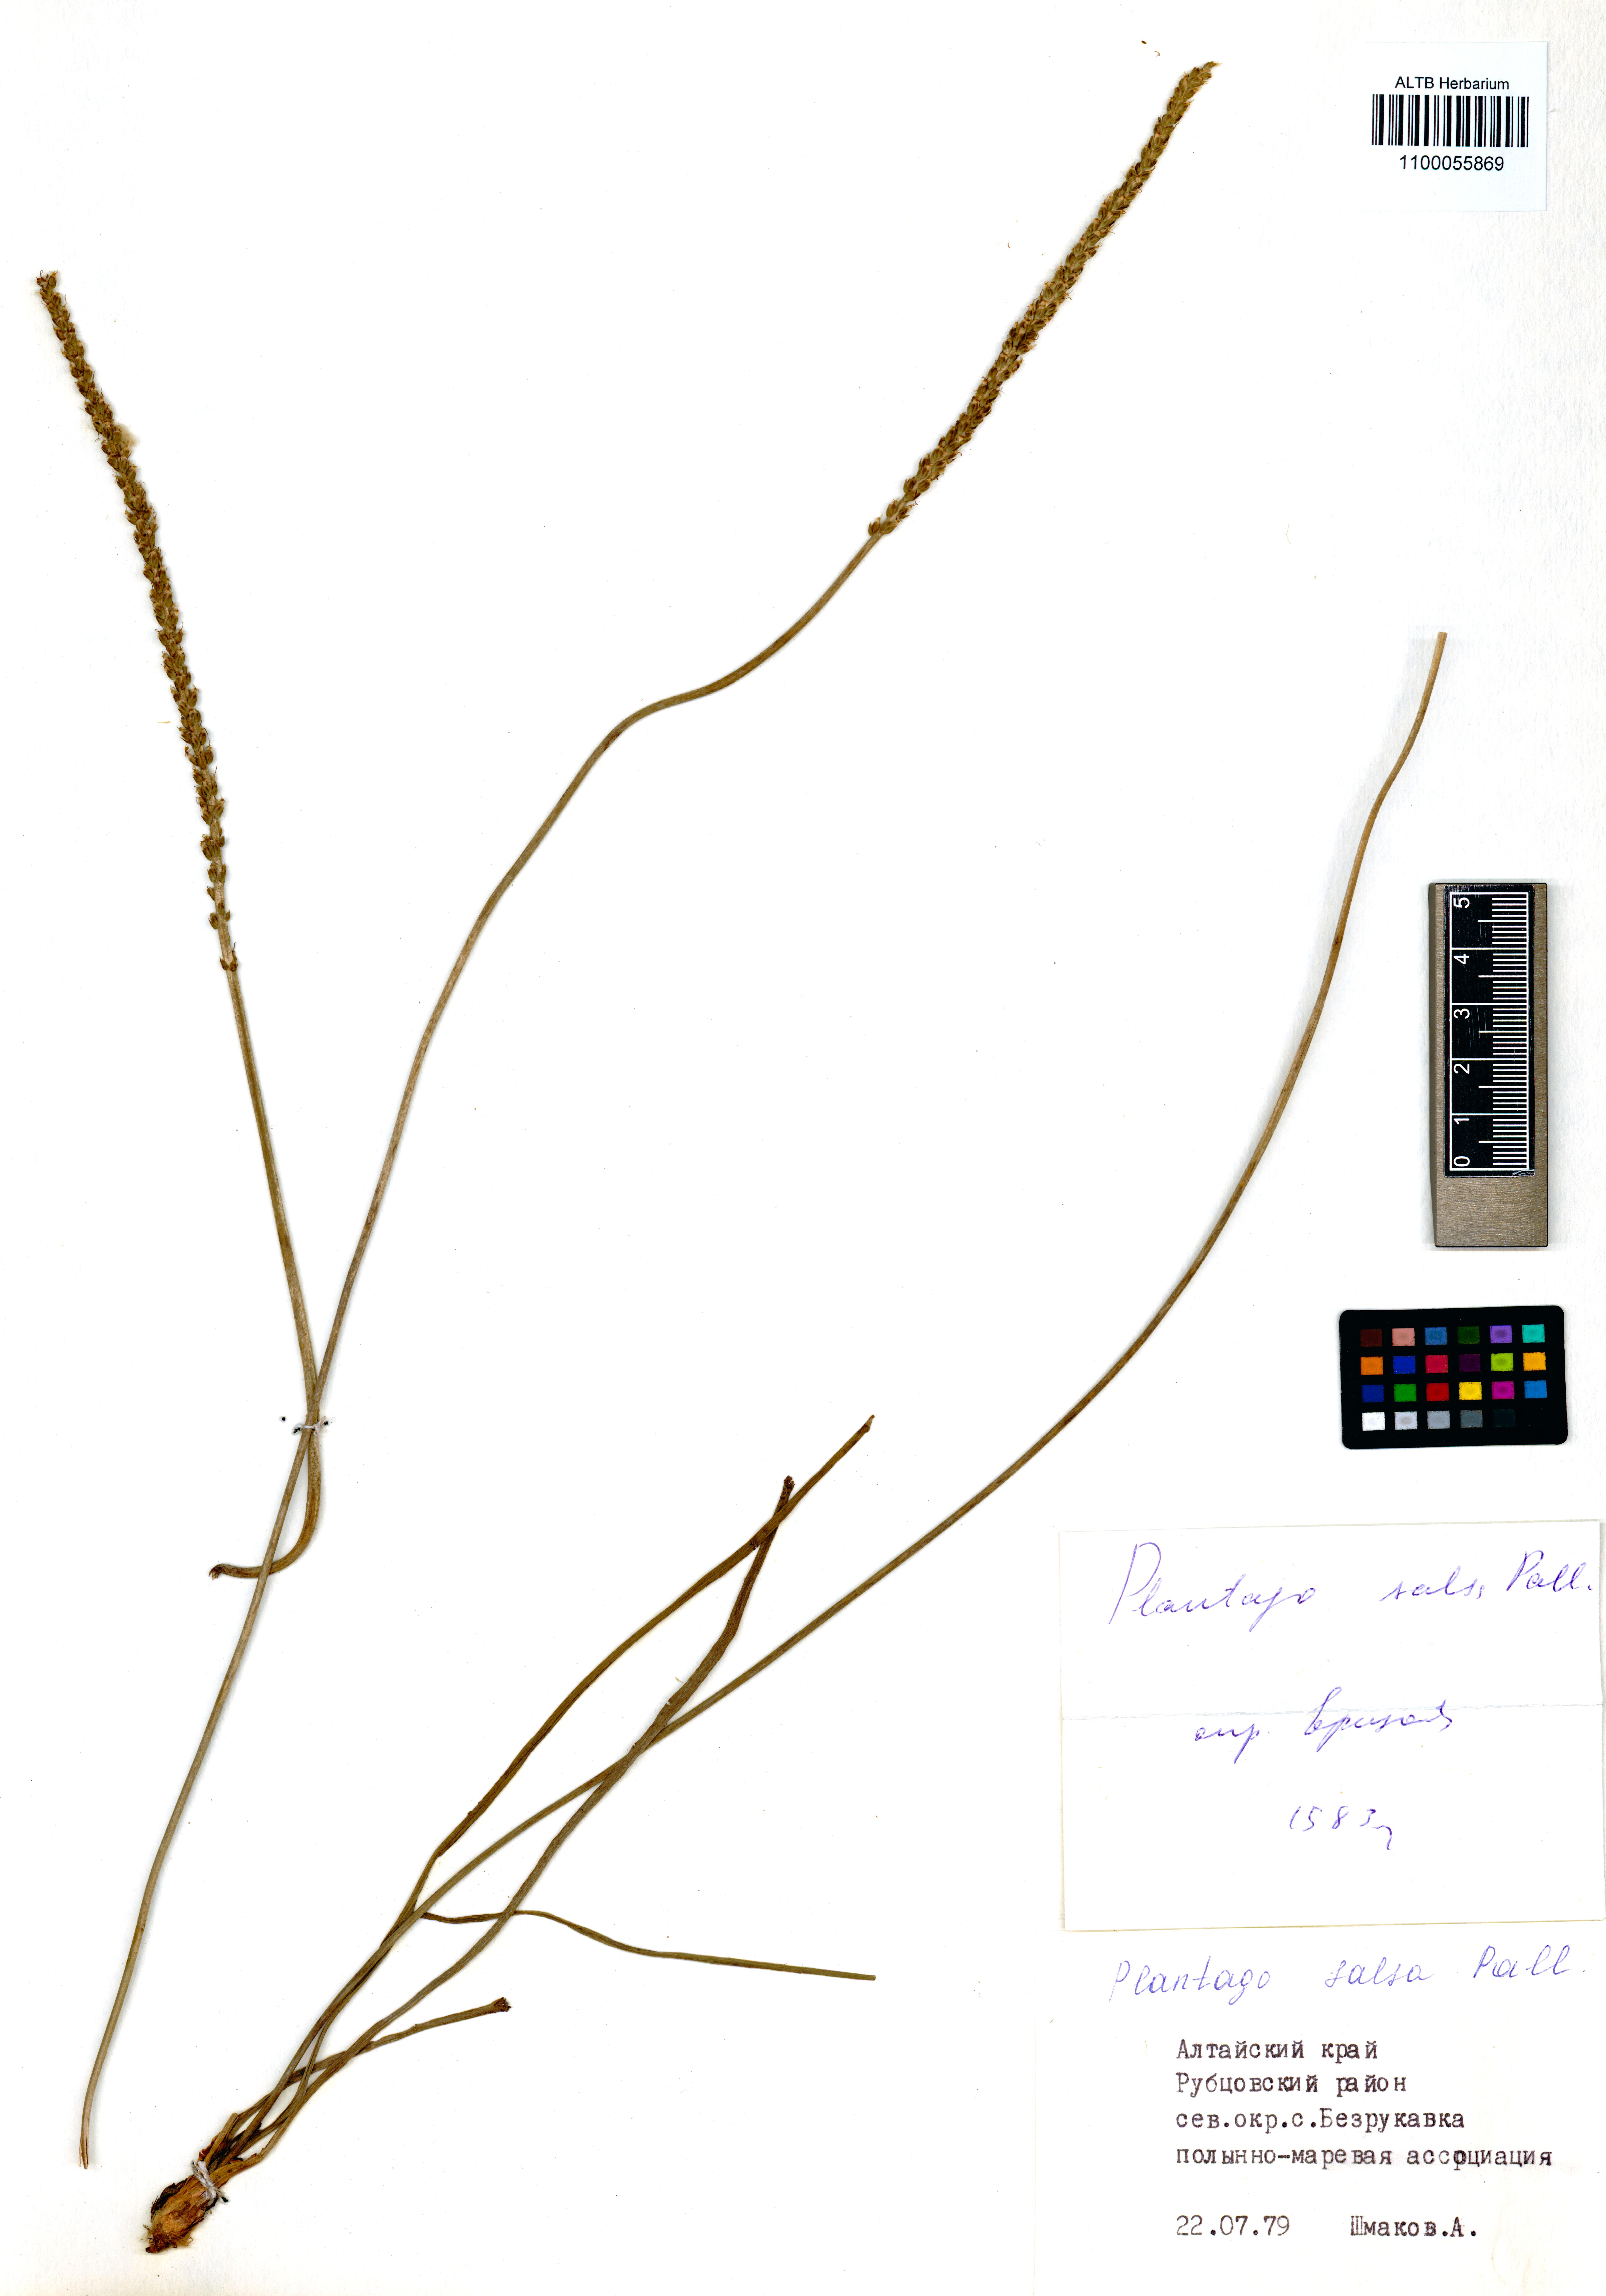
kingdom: Plantae
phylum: Tracheophyta
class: Magnoliopsida
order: Lamiales
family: Plantaginaceae
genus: Plantago
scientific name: Plantago salsa
